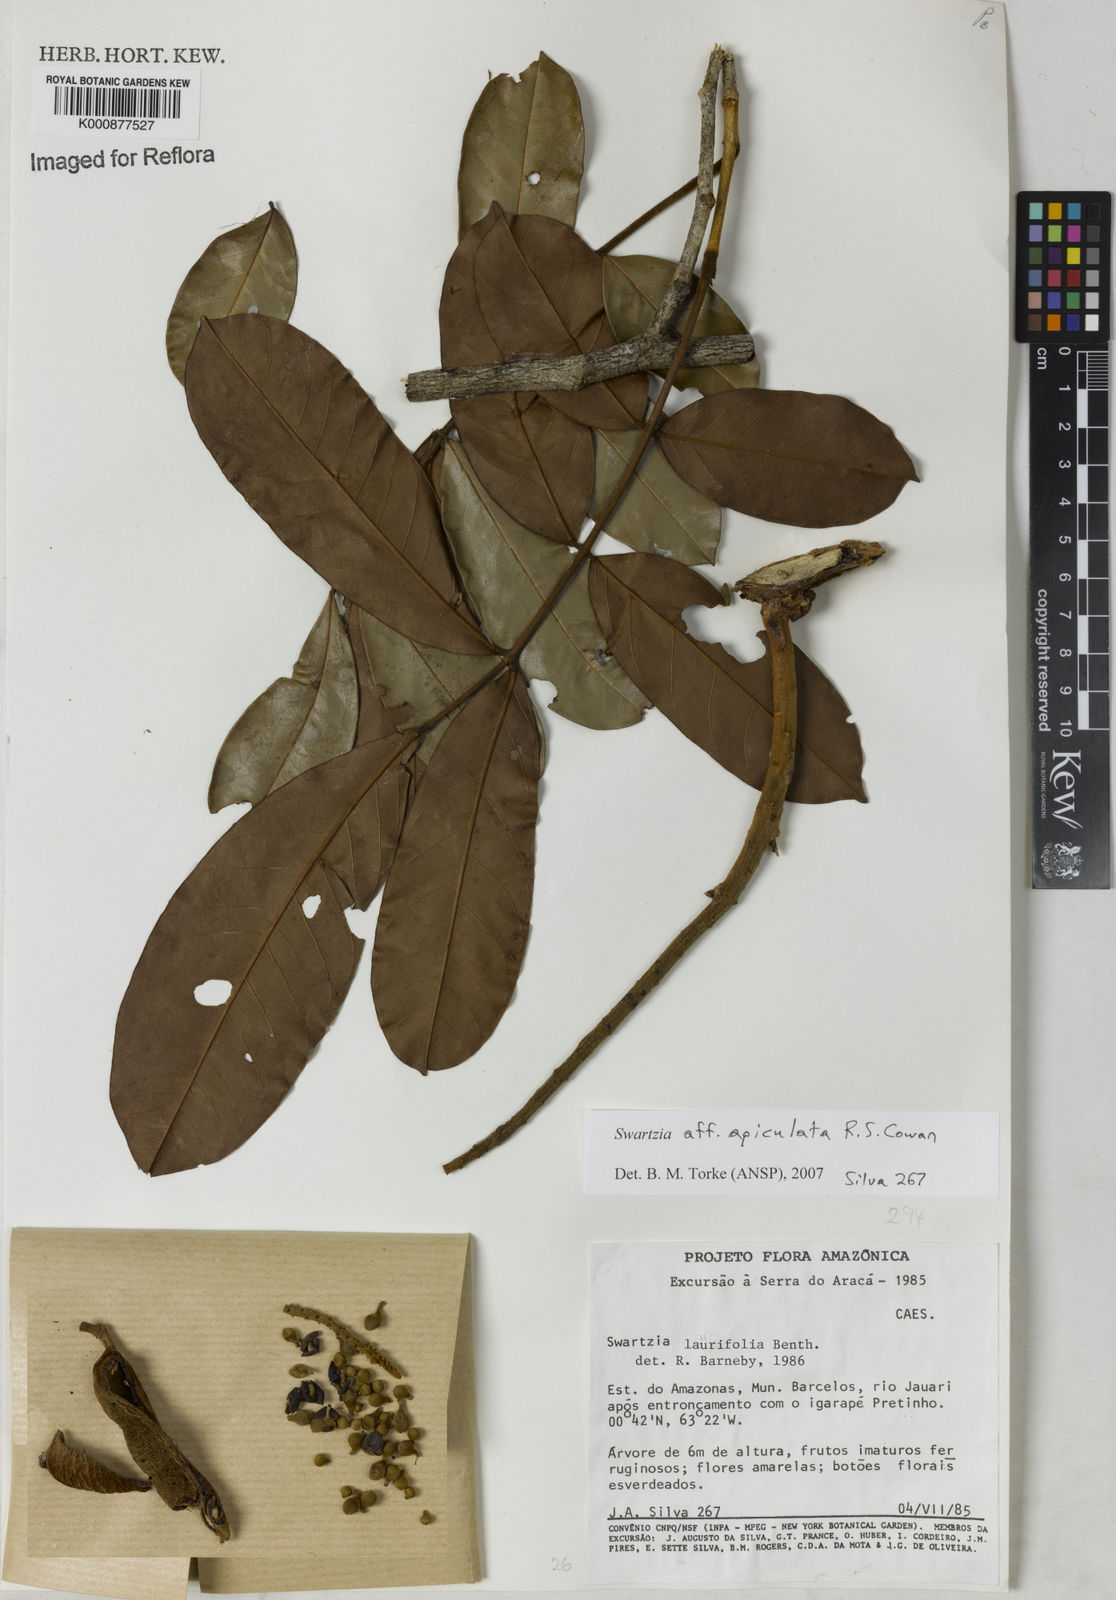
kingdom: Plantae
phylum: Tracheophyta
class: Magnoliopsida
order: Fabales
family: Fabaceae
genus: Swartzia
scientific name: Swartzia apiculata
